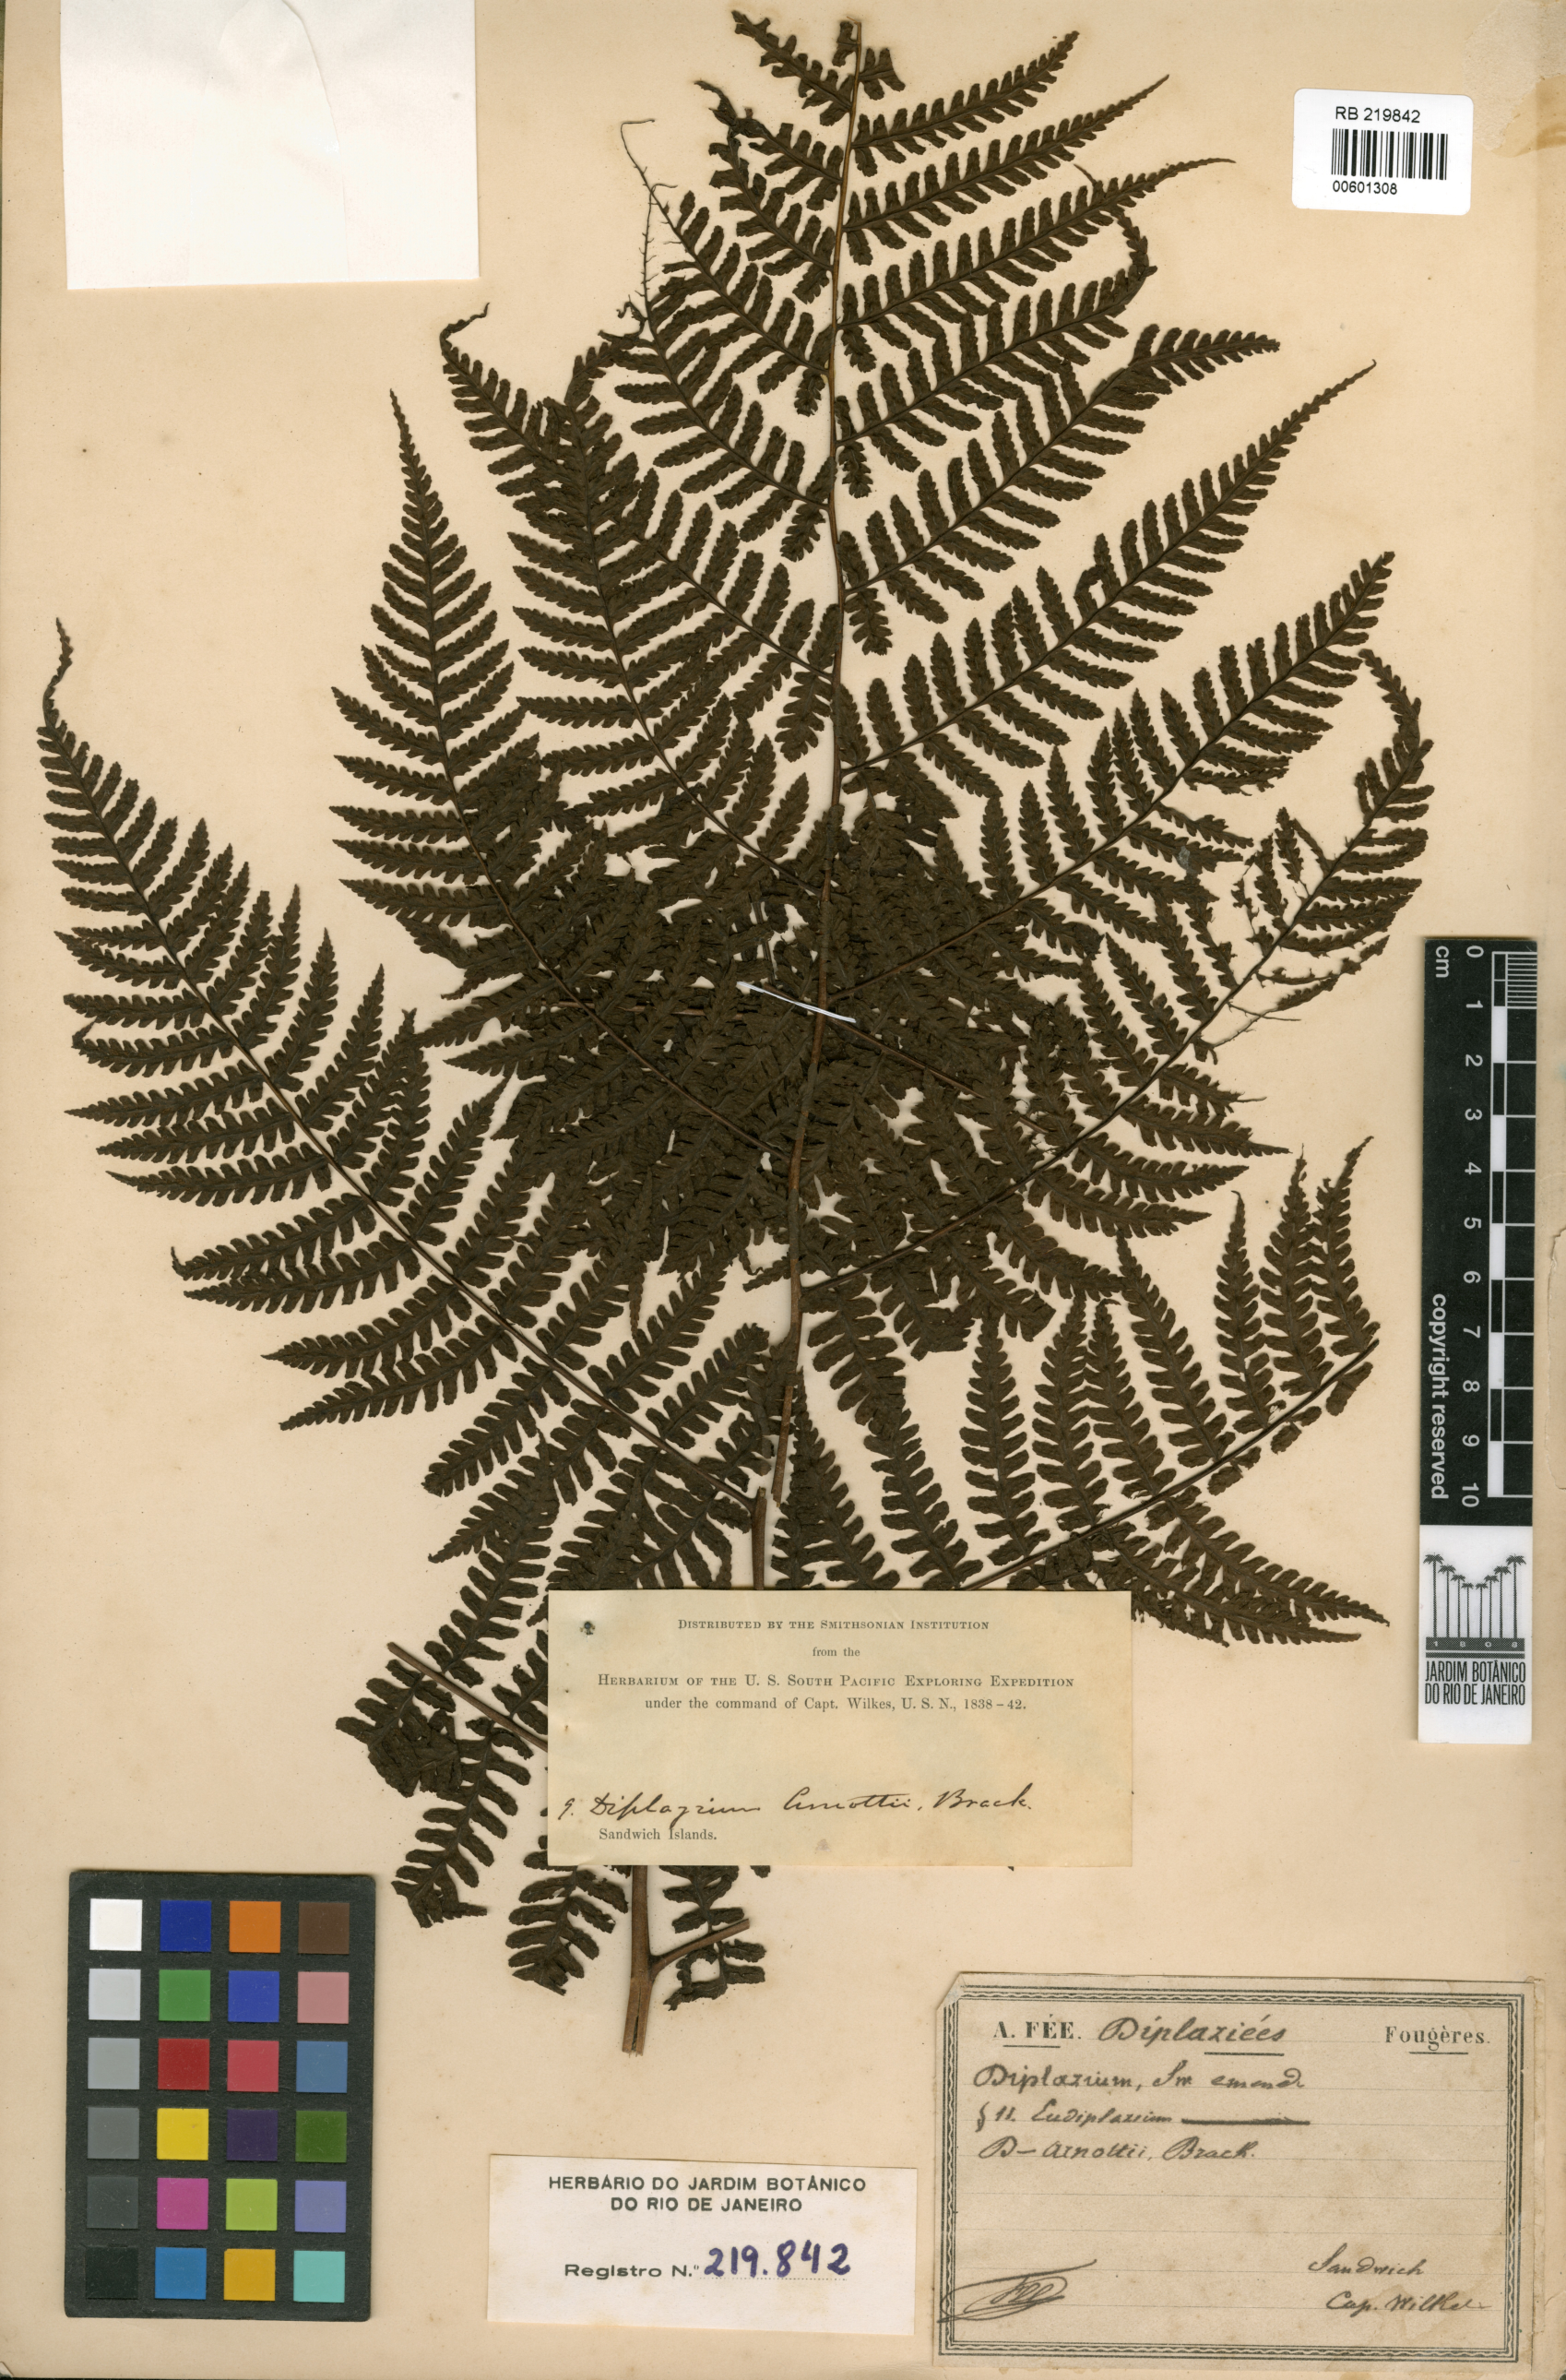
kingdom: Plantae
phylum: Tracheophyta
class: Polypodiopsida
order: Polypodiales
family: Athyriaceae
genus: Diplazium
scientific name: Diplazium arnottii
